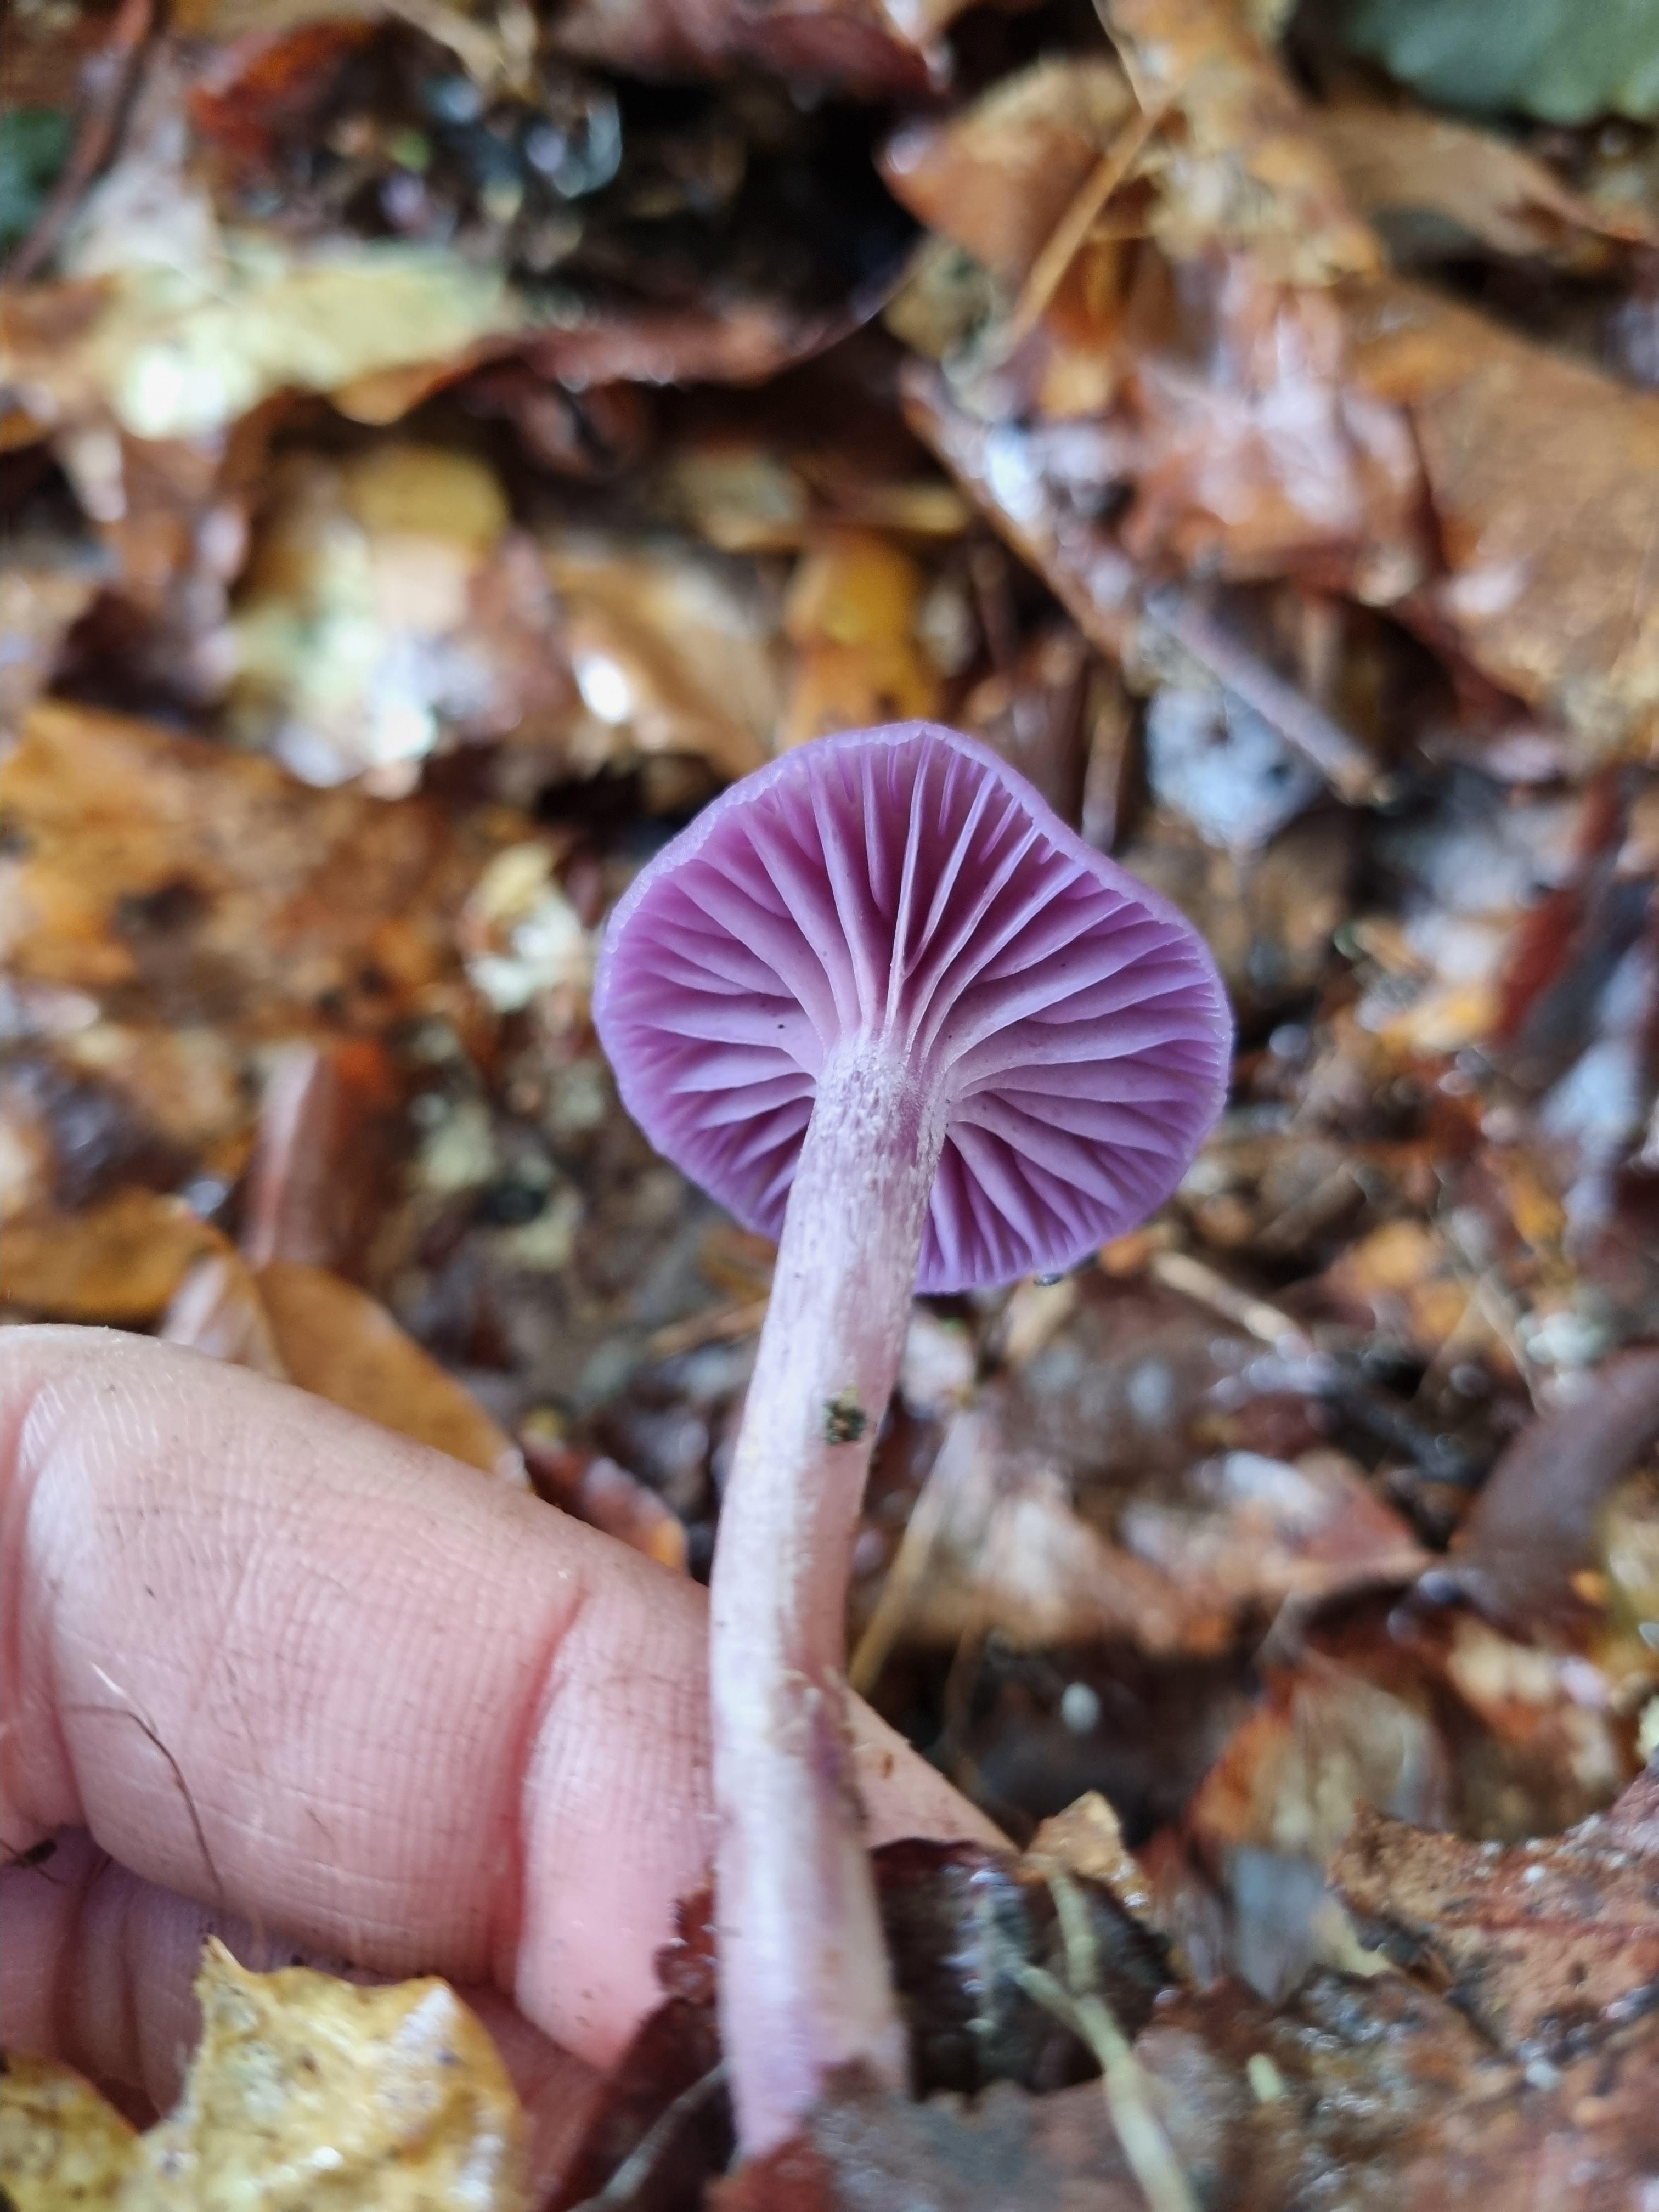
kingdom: Fungi
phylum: Basidiomycota
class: Agaricomycetes
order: Agaricales
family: Hydnangiaceae
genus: Laccaria
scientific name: Laccaria amethystina
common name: violet ametysthat
